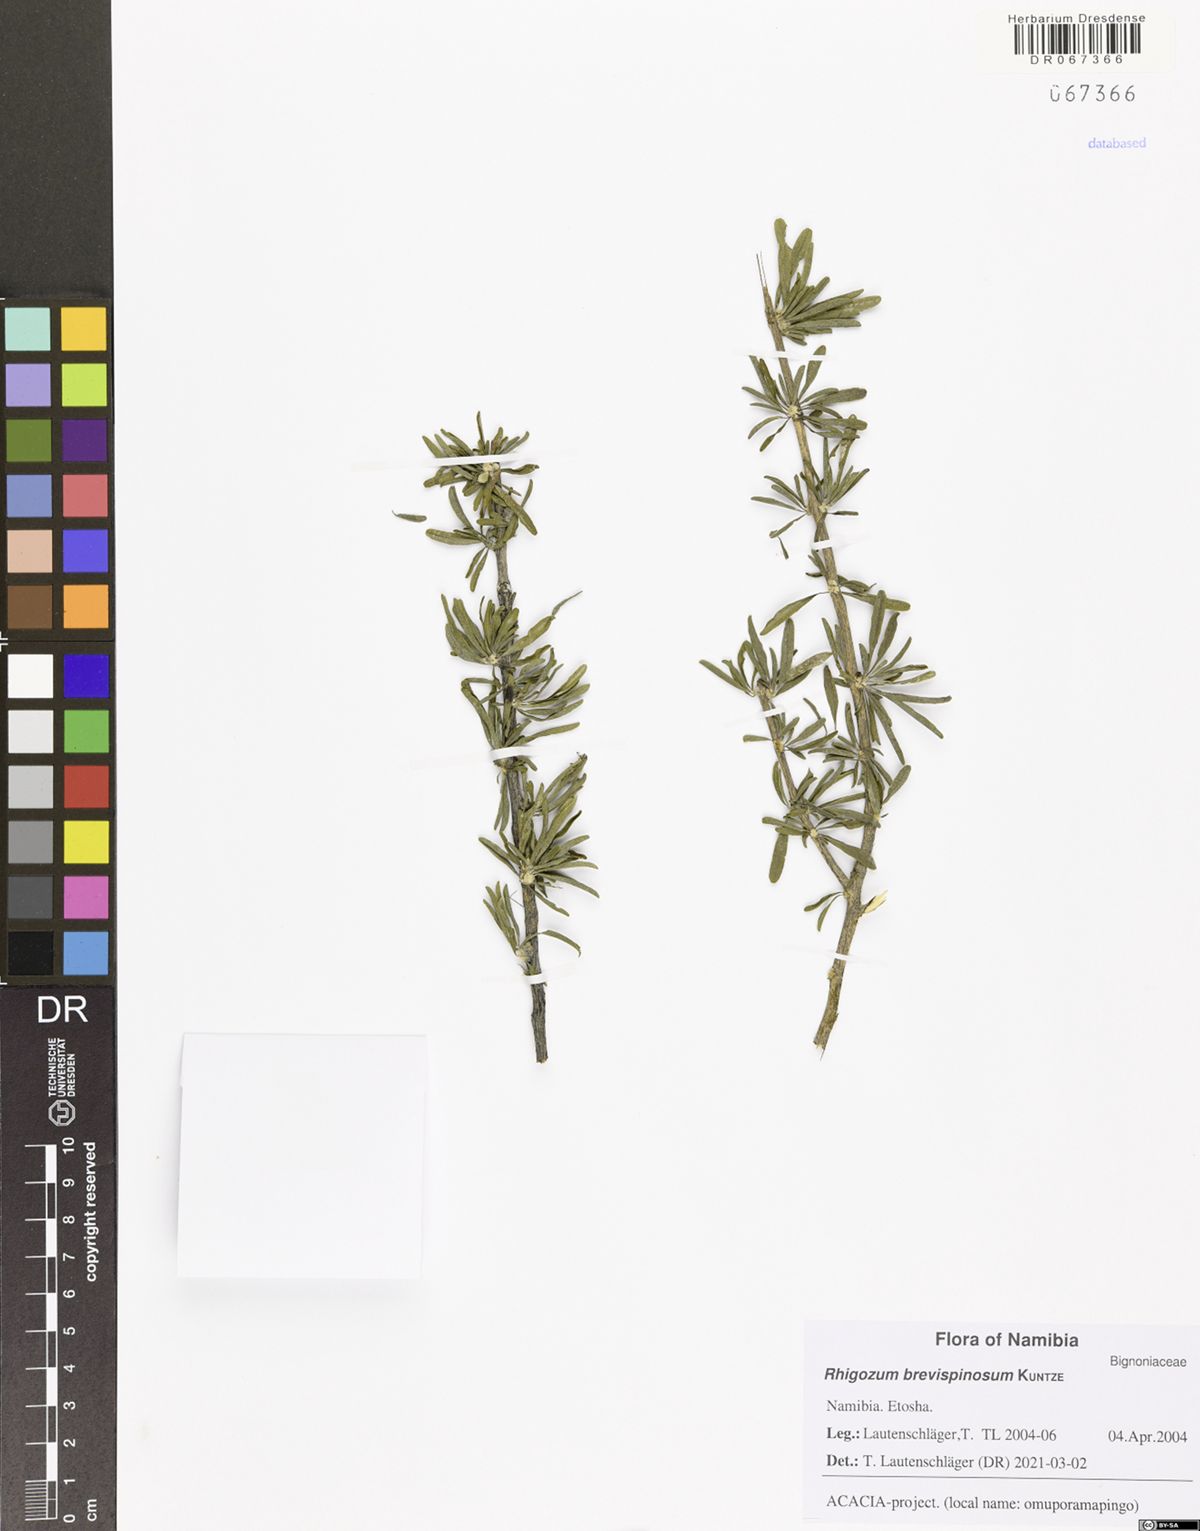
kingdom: Plantae
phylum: Tracheophyta
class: Magnoliopsida
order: Lamiales
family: Bignoniaceae
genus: Rhigozum
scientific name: Rhigozum brevispinosum
